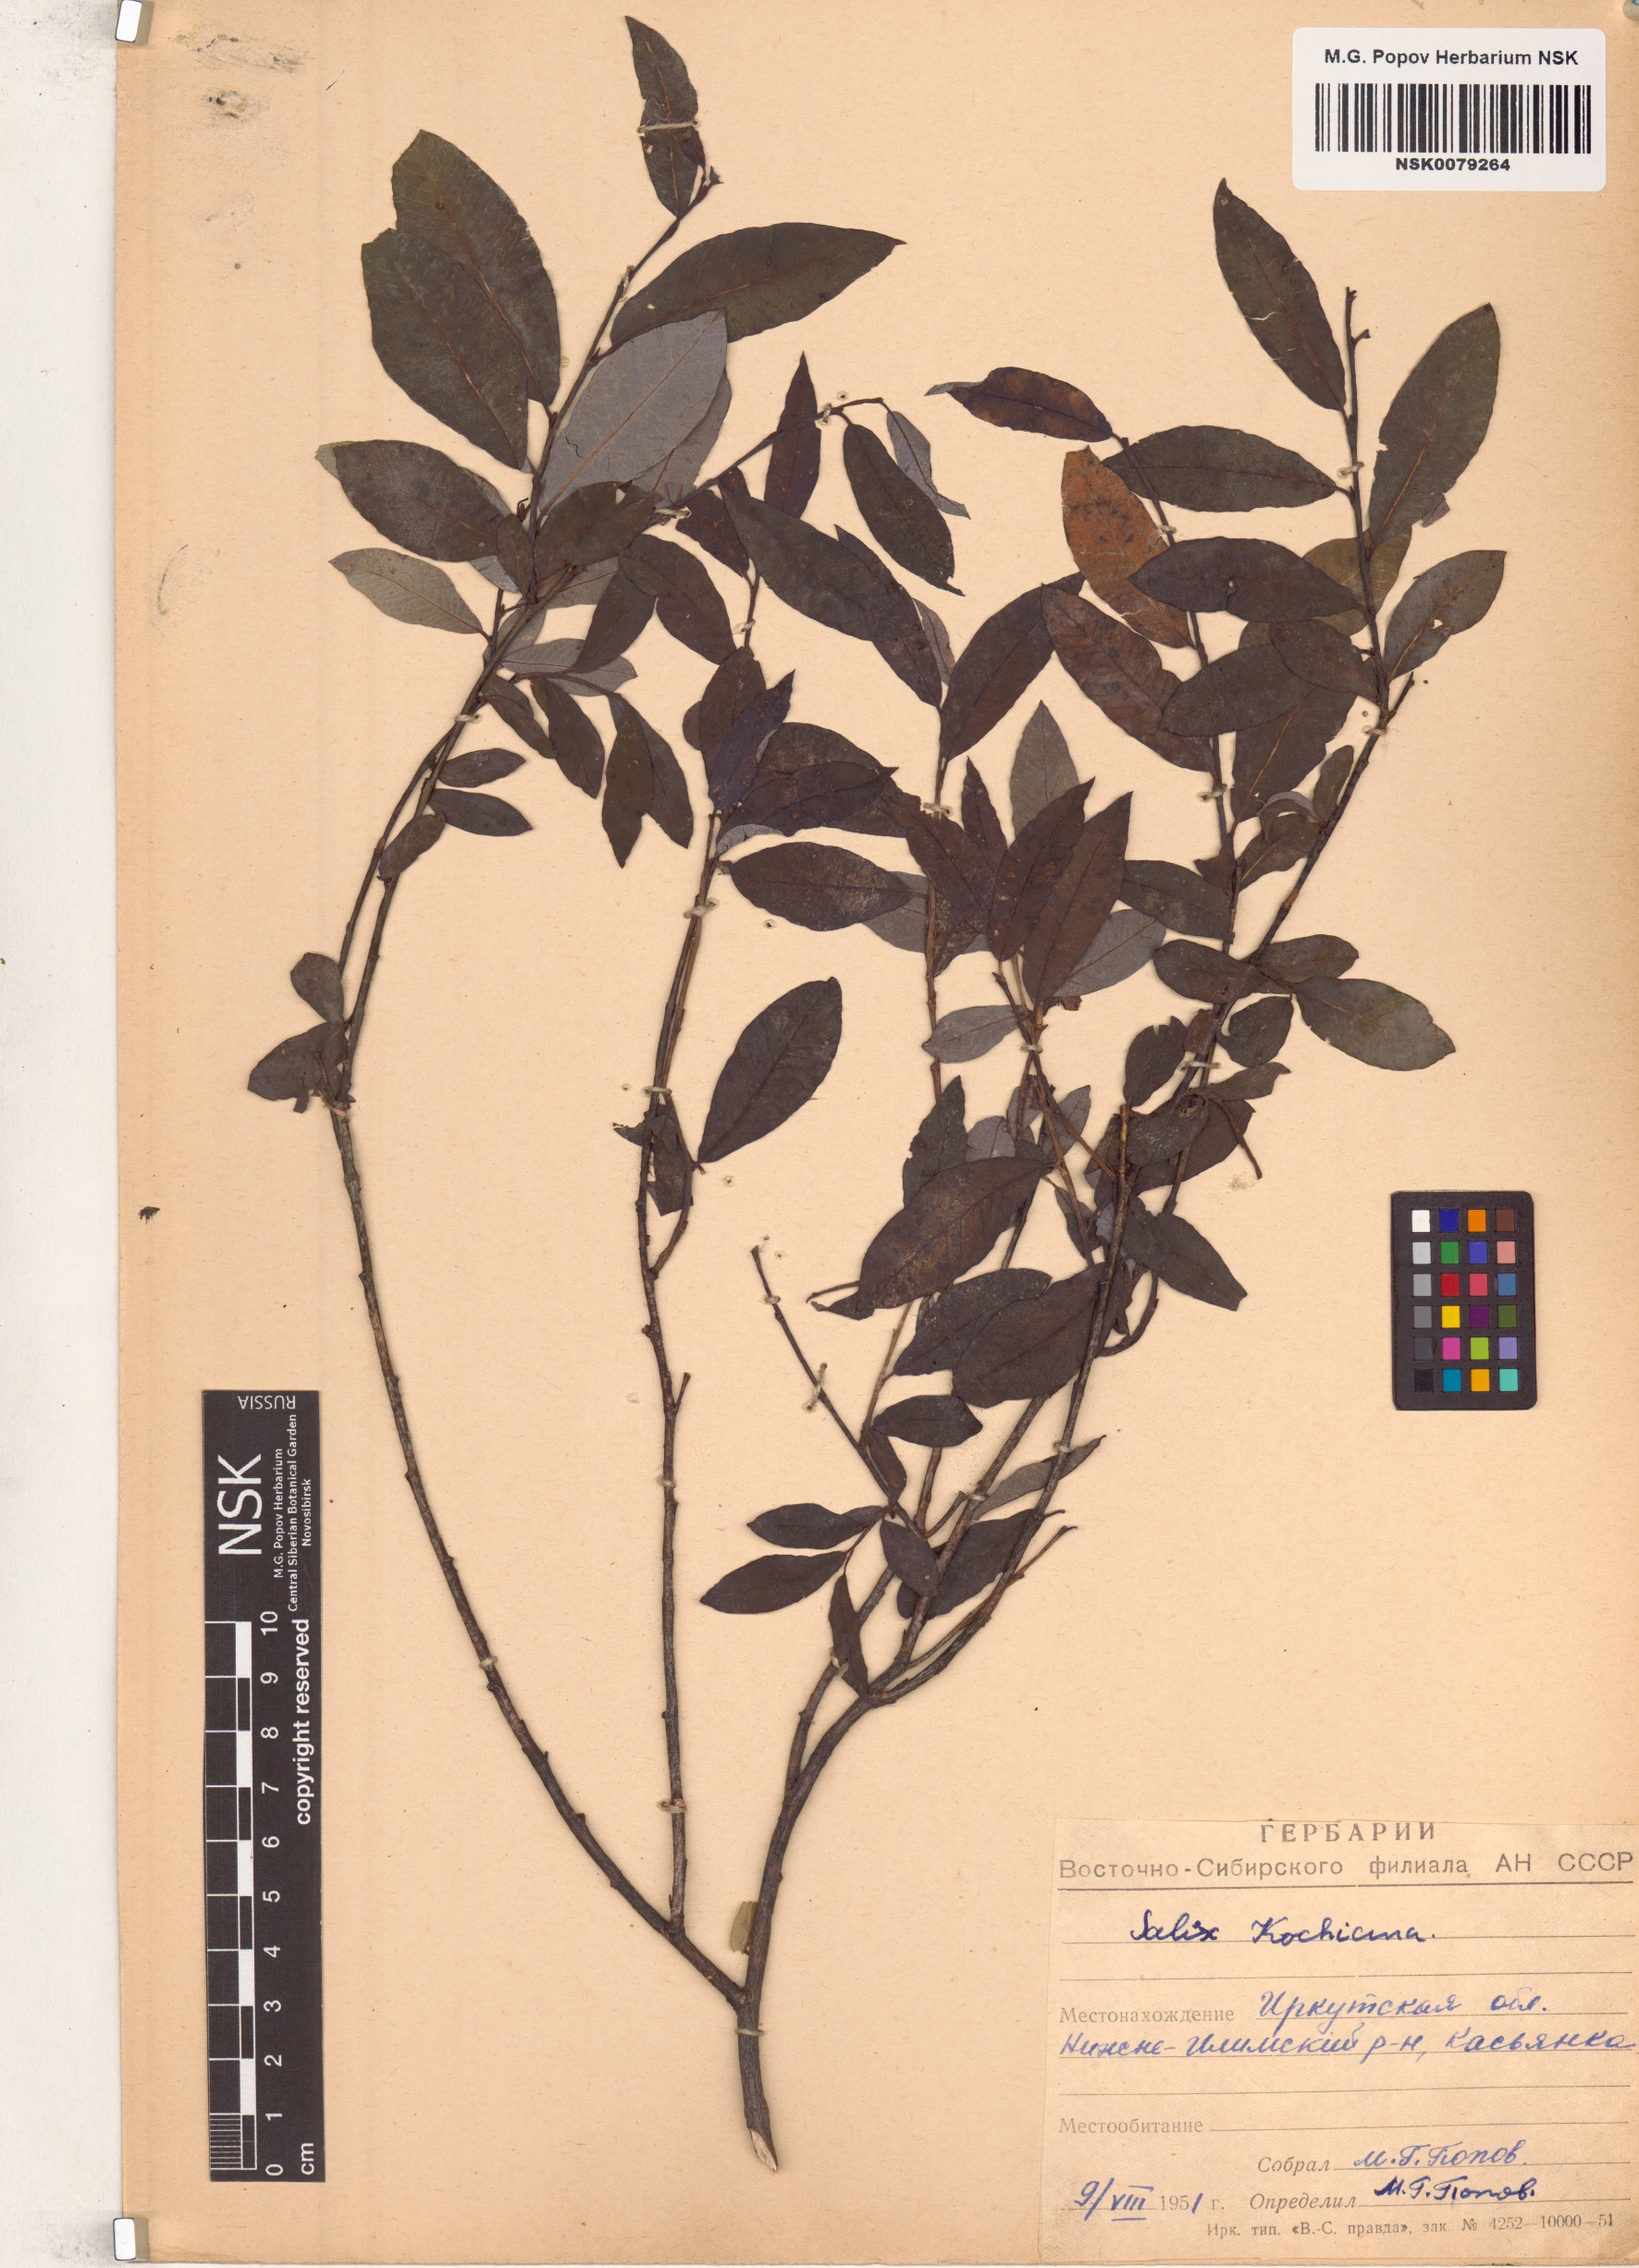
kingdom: Plantae
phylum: Tracheophyta
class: Magnoliopsida
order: Malpighiales
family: Salicaceae
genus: Salix
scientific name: Salix kochiana
